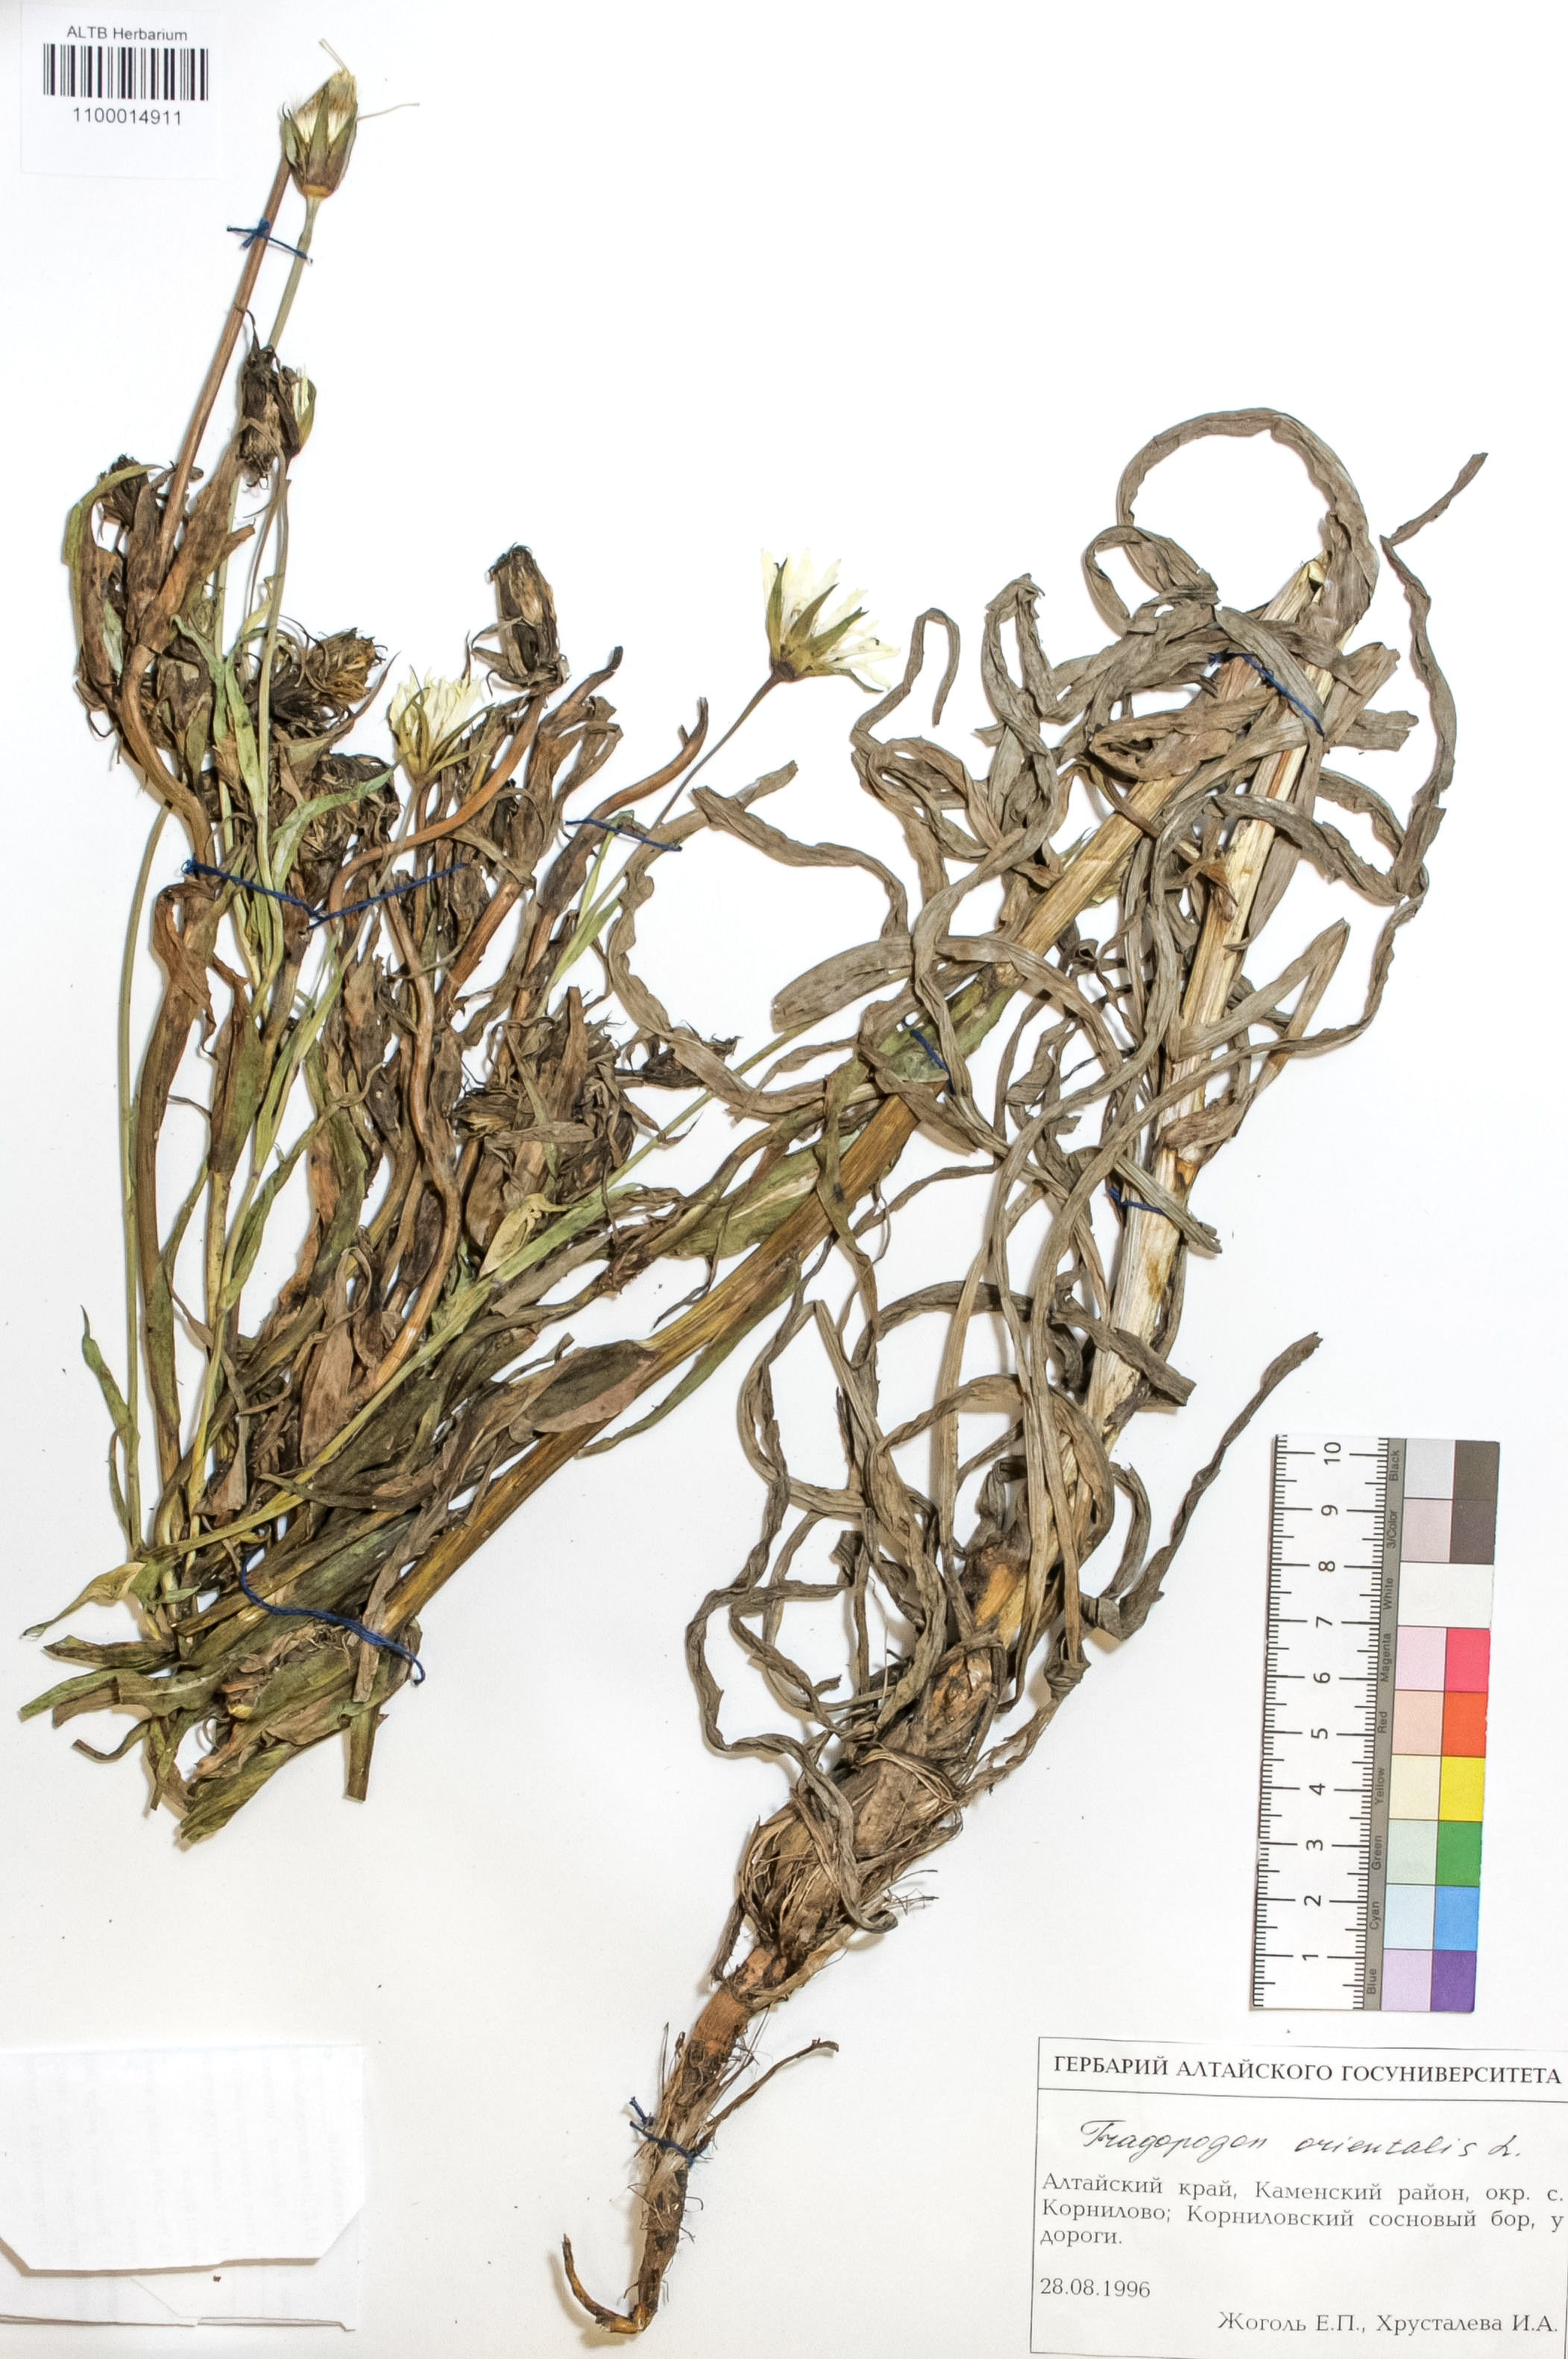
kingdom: Plantae
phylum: Tracheophyta
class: Magnoliopsida
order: Asterales
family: Asteraceae
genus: Tragopogon
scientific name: Tragopogon orientalis
